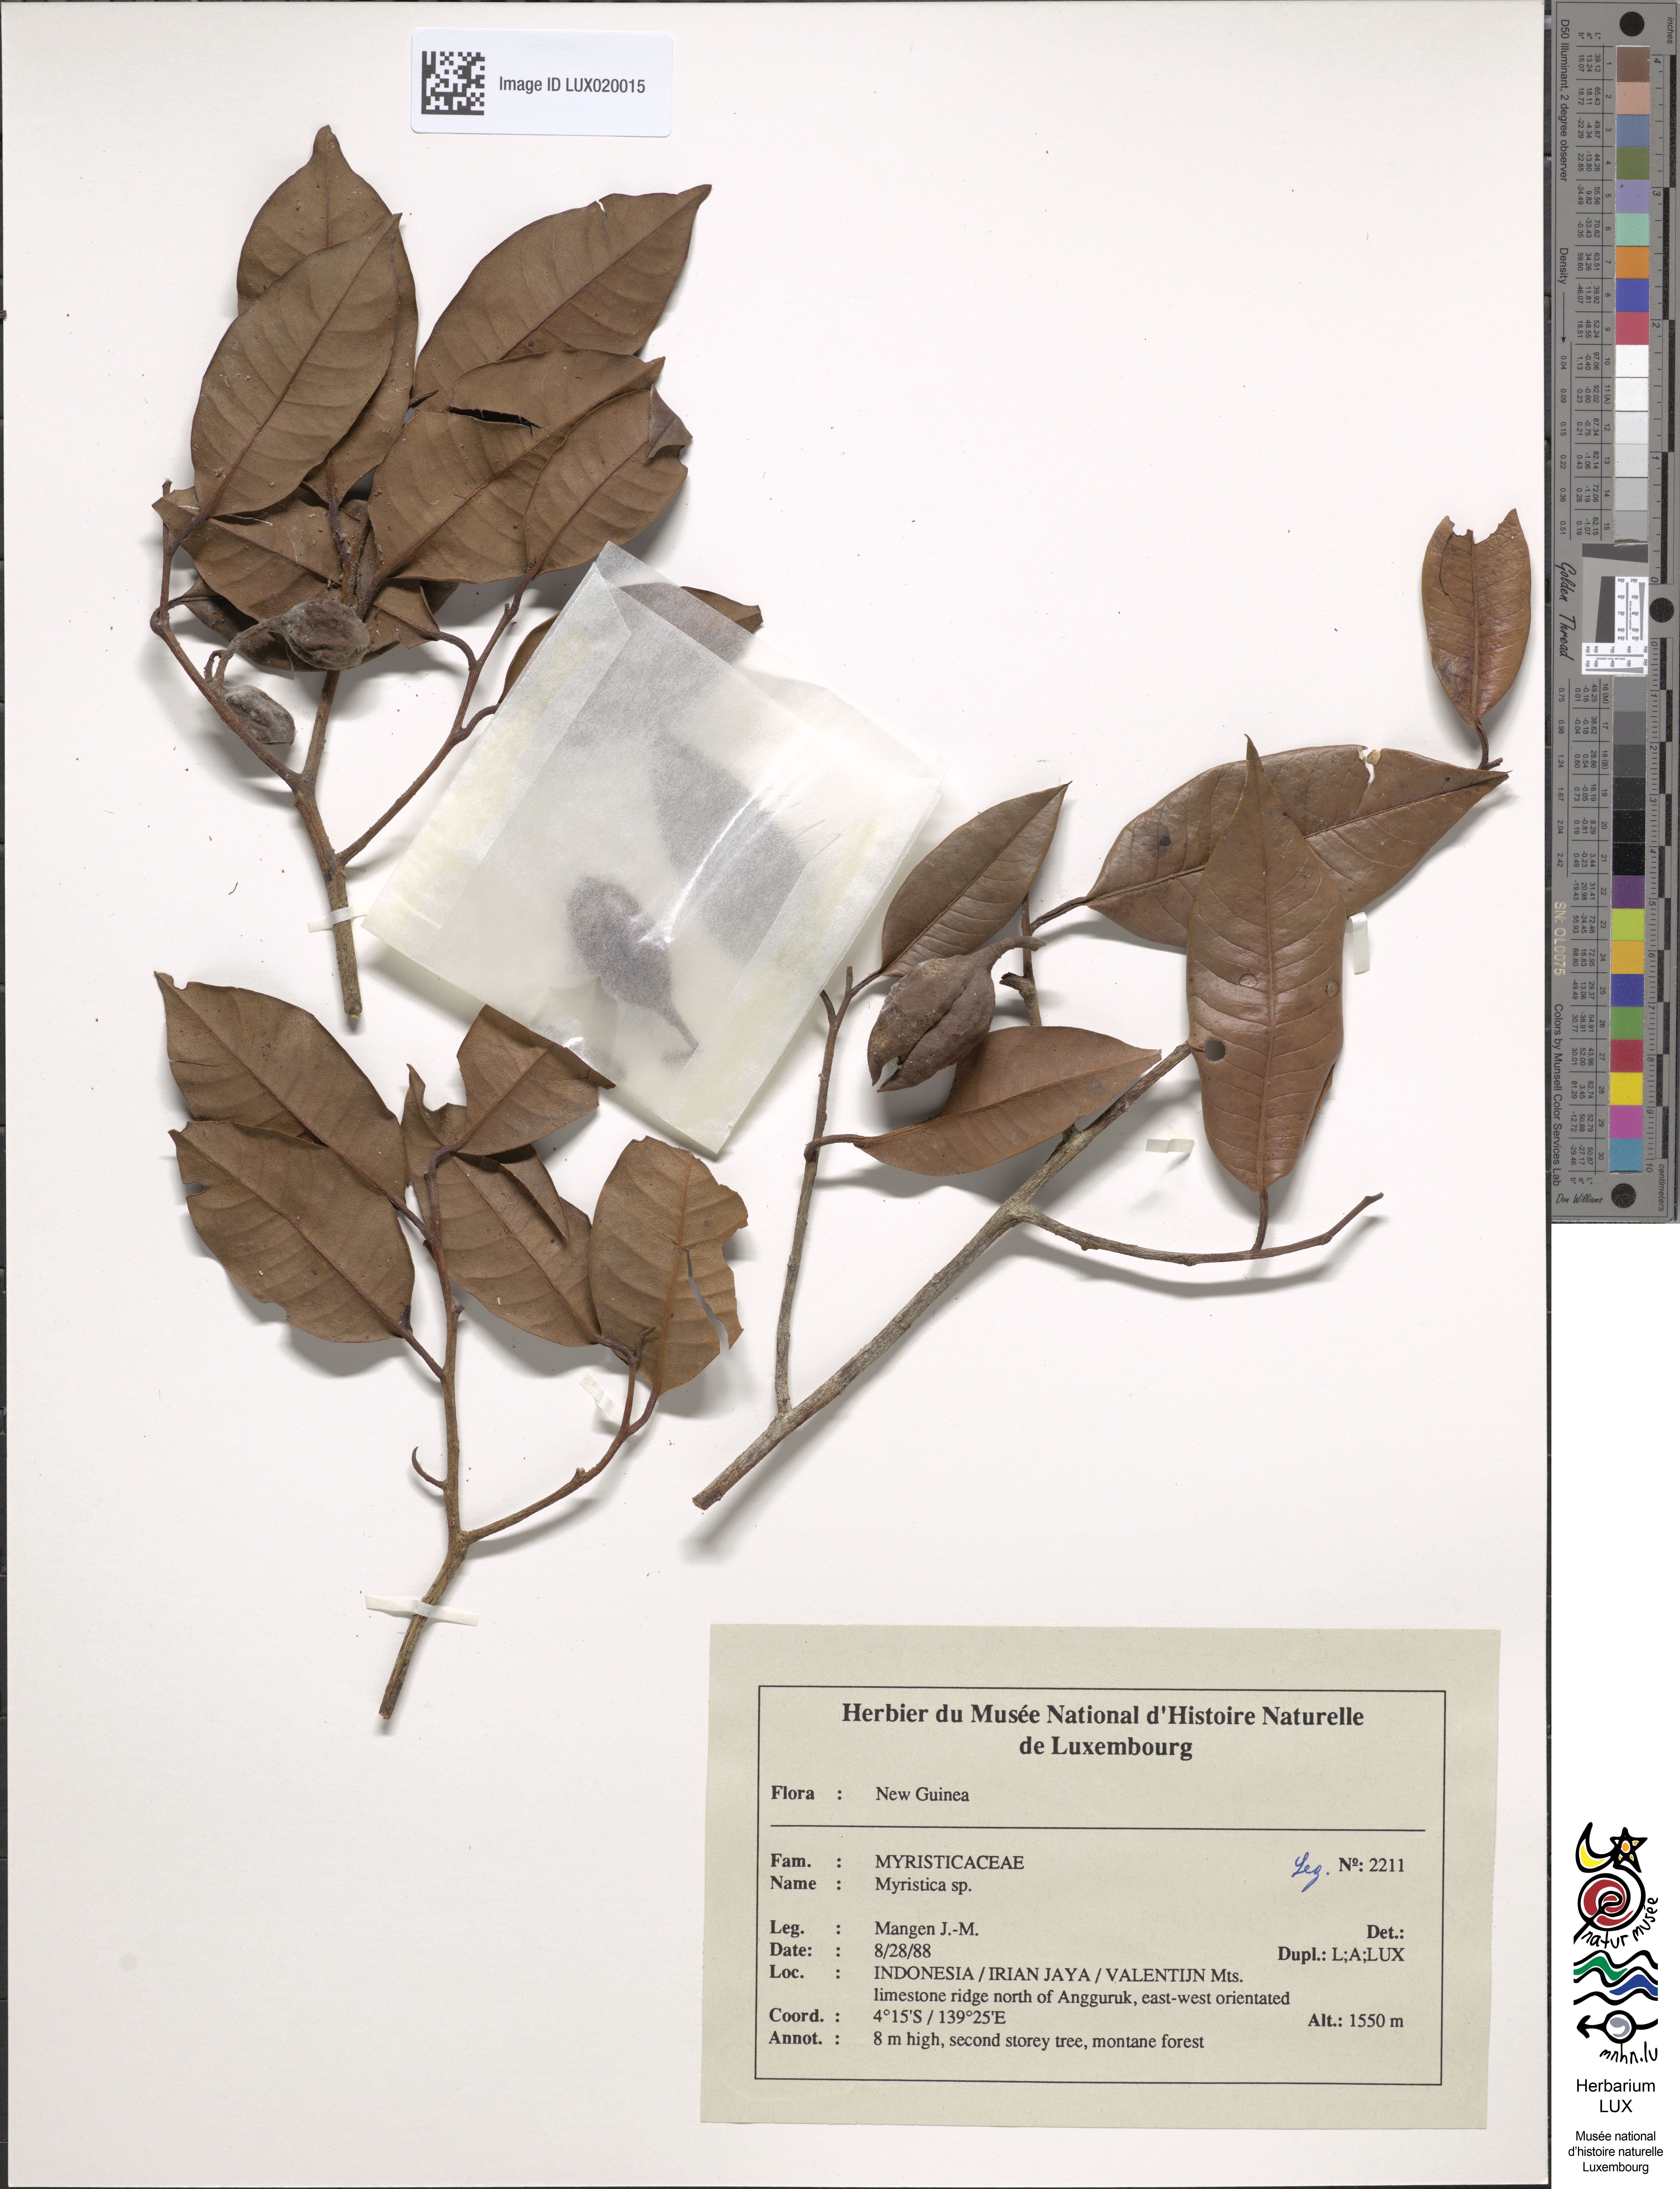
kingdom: Plantae
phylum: Tracheophyta
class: Magnoliopsida
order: Magnoliales
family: Myristicaceae
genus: Myristica
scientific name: Myristica
